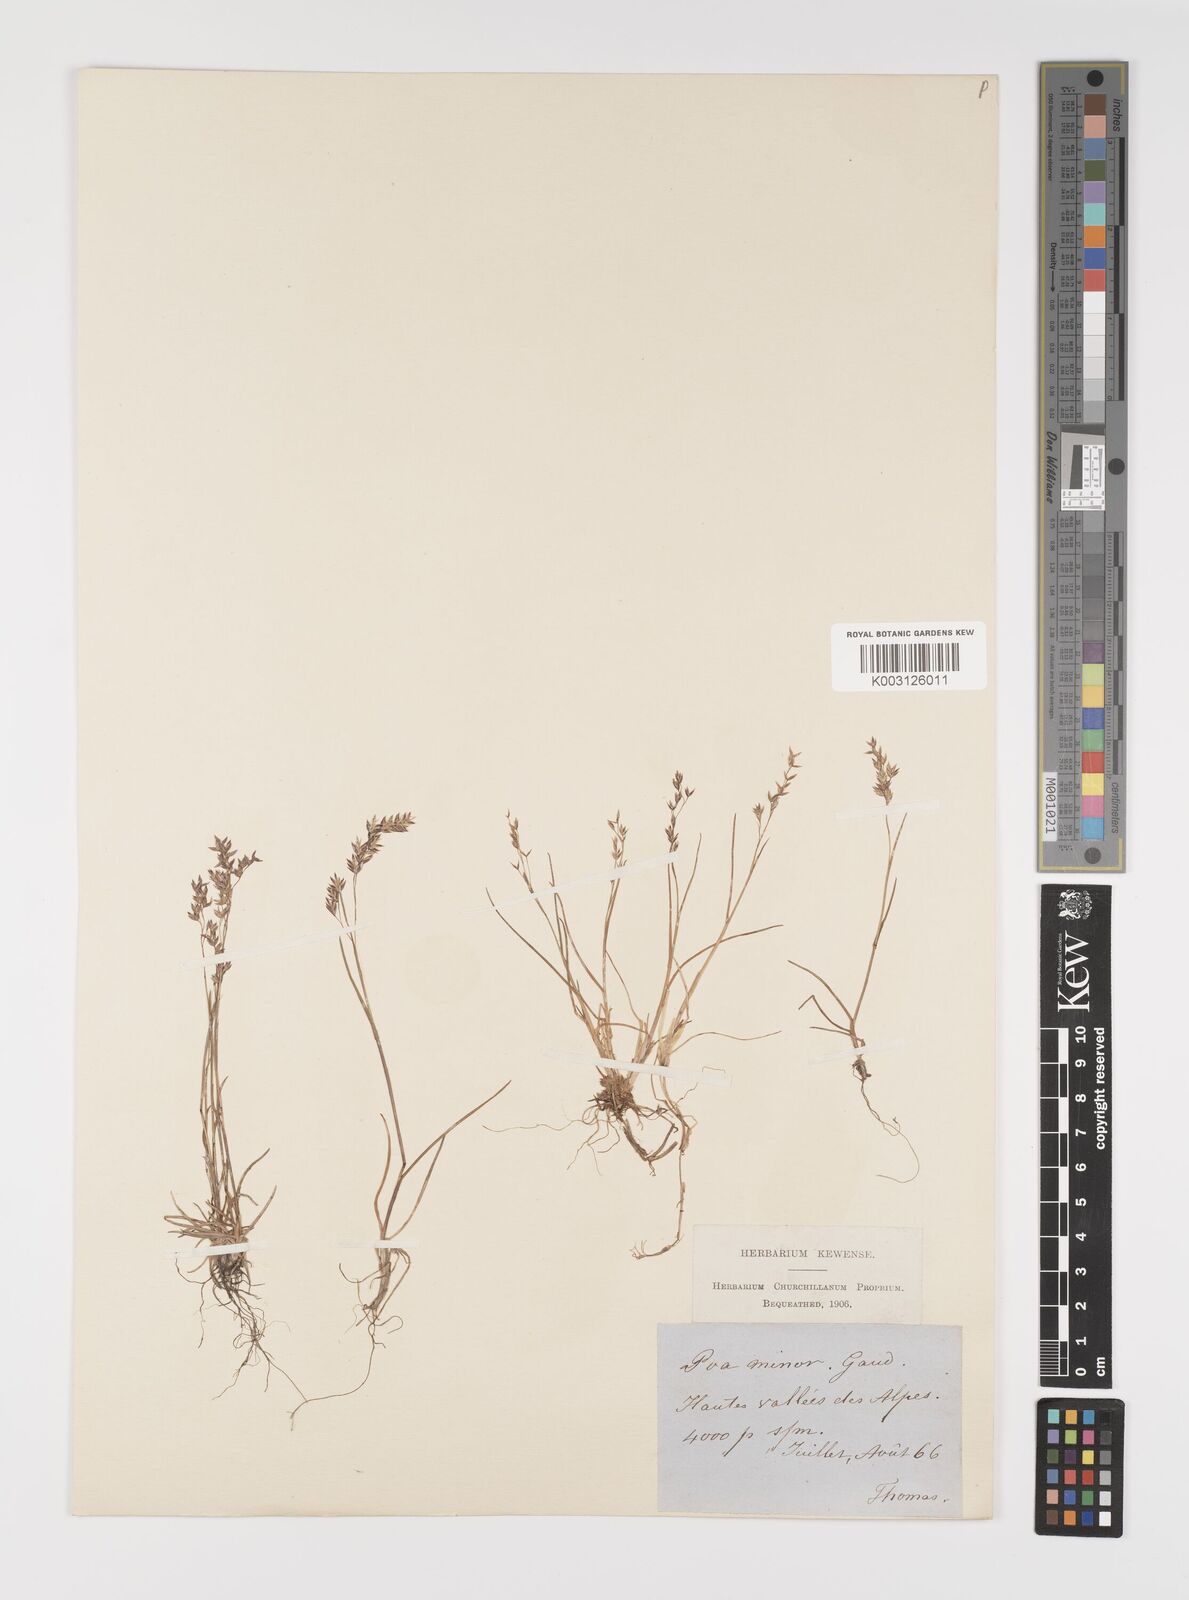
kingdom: Plantae
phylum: Tracheophyta
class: Liliopsida
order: Poales
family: Poaceae
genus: Poa
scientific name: Poa minor
